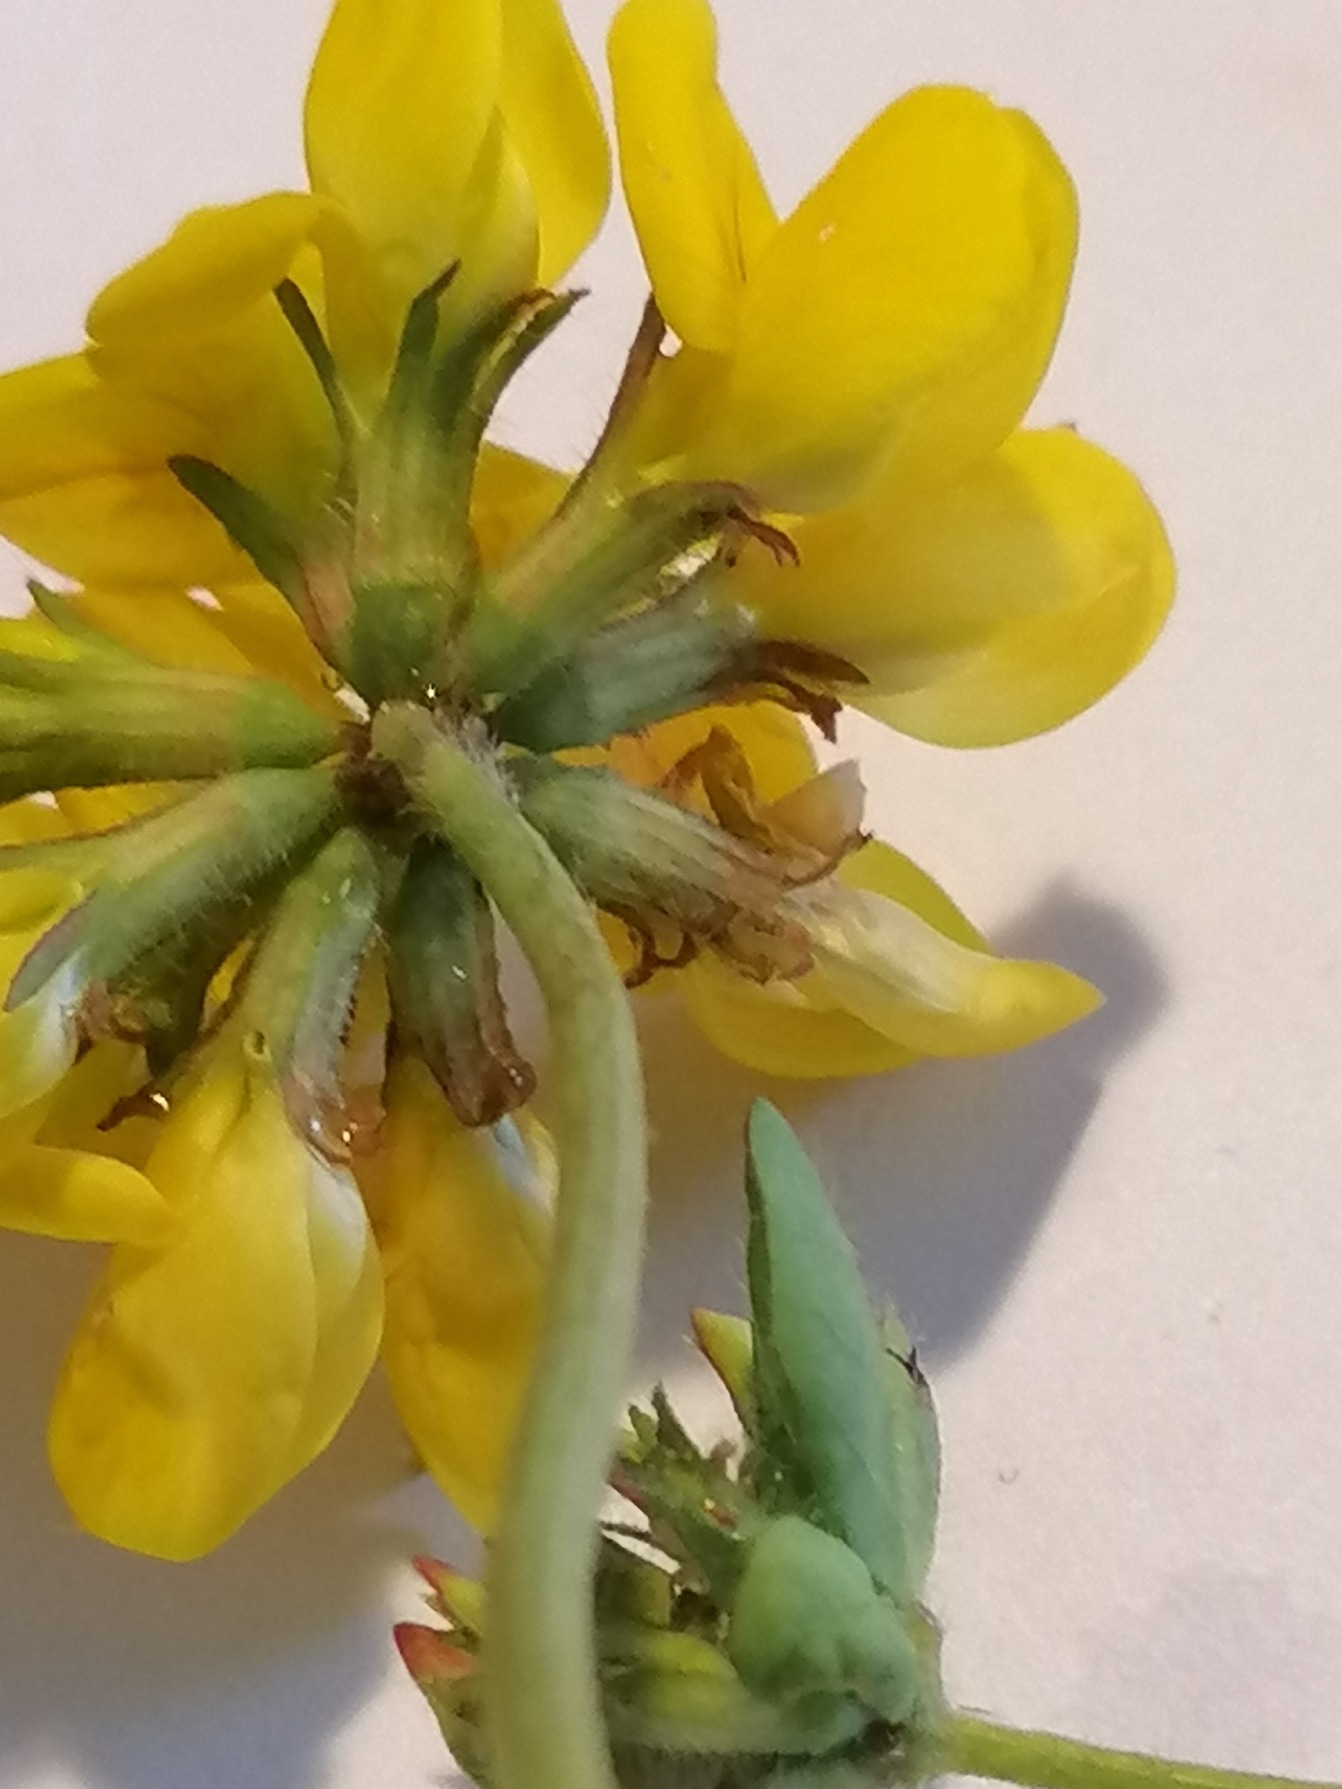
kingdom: Plantae
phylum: Tracheophyta
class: Magnoliopsida
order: Fabales
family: Fabaceae
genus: Lotus
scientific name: Lotus pedunculatus
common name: Sump-kællingetand
